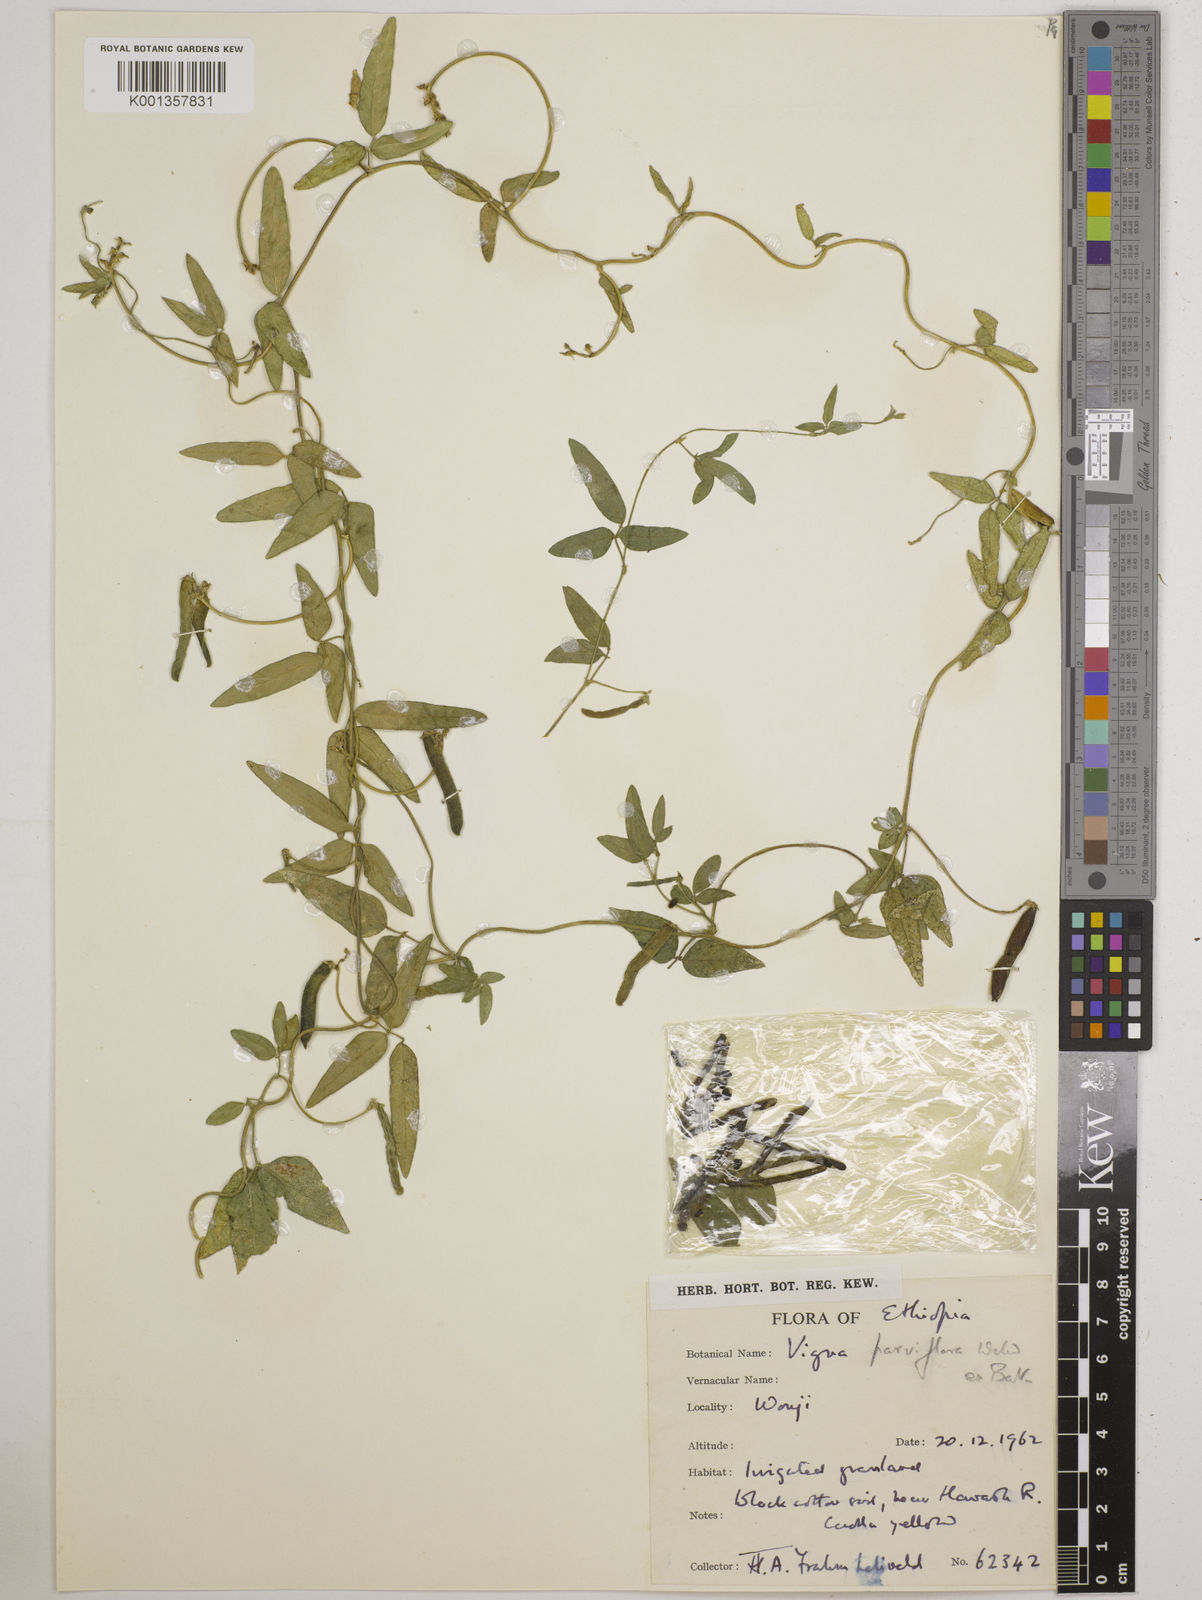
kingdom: Plantae
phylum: Tracheophyta
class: Magnoliopsida
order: Fabales
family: Fabaceae
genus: Vigna
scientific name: Vigna
